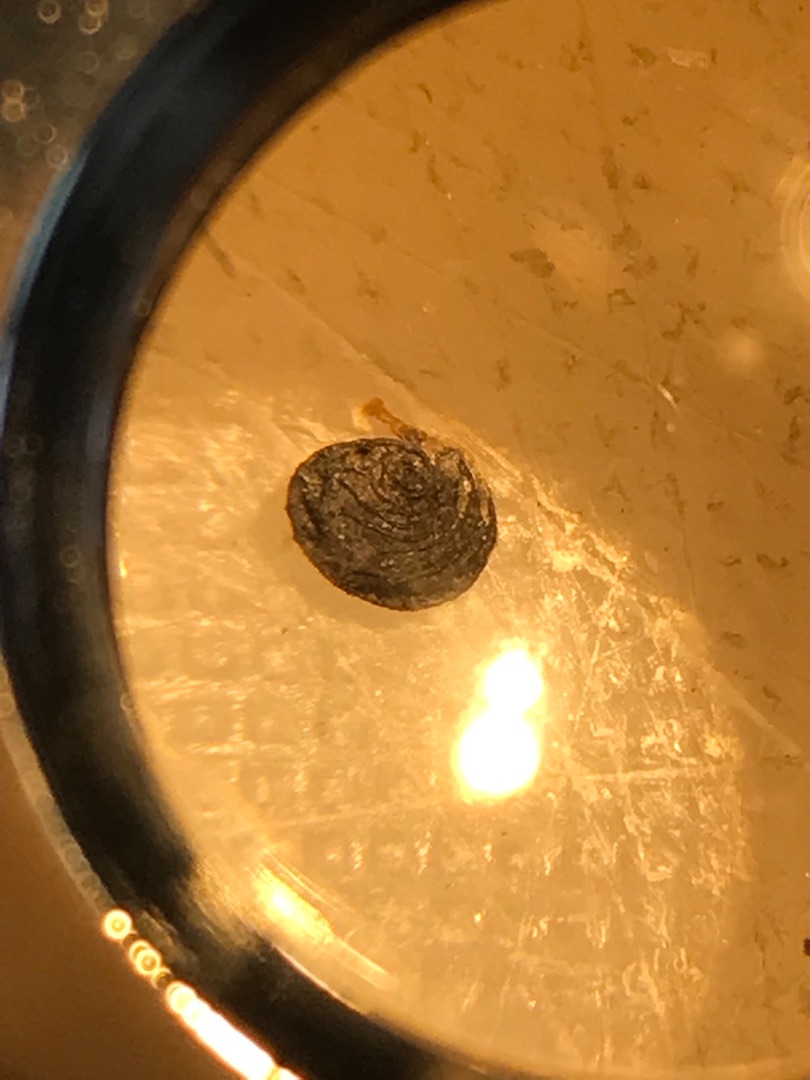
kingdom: Plantae
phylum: Tracheophyta
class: Magnoliopsida
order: Fabales
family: Fabaceae
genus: Medicago
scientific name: Medicago lupulina
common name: Humle-sneglebælg
